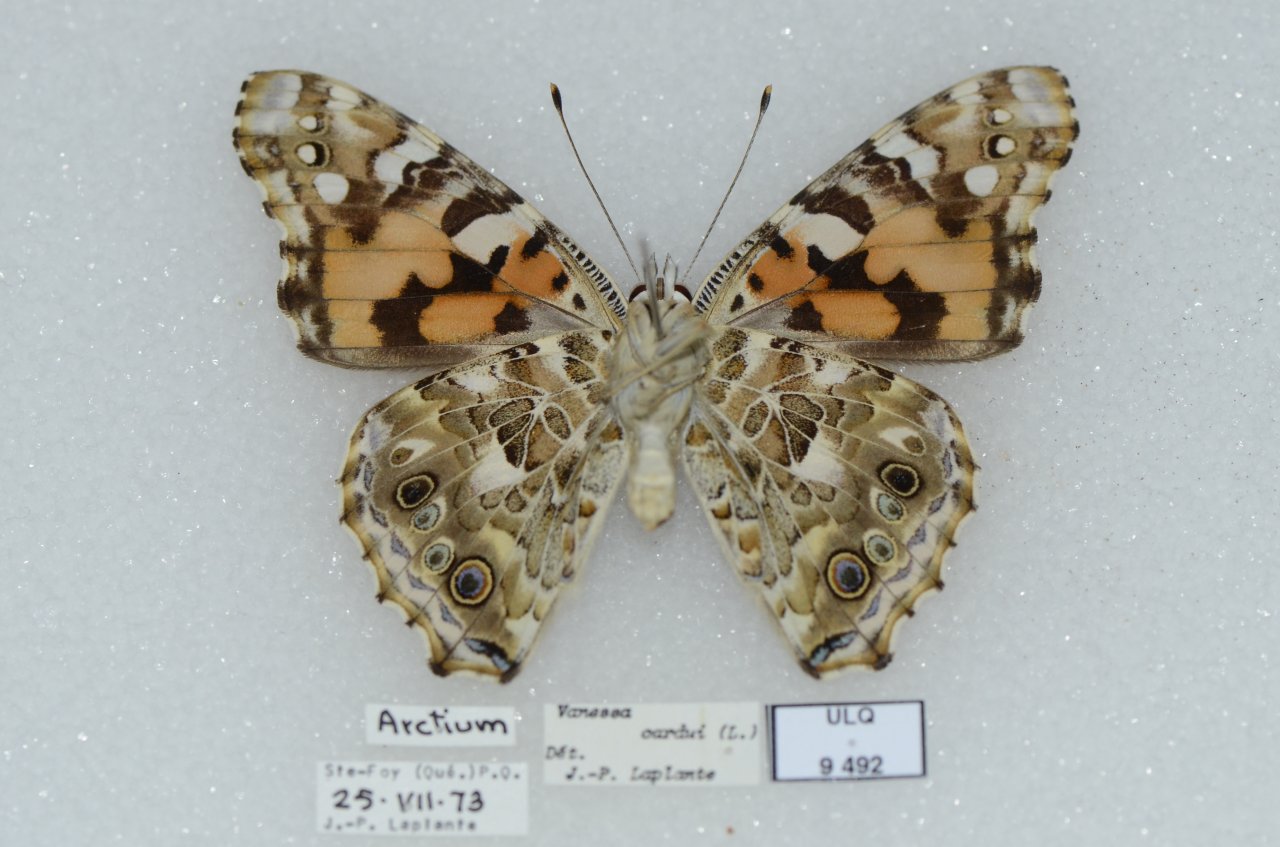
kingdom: Animalia
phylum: Arthropoda
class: Insecta
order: Lepidoptera
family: Nymphalidae
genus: Vanessa
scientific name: Vanessa cardui
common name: Painted Lady
